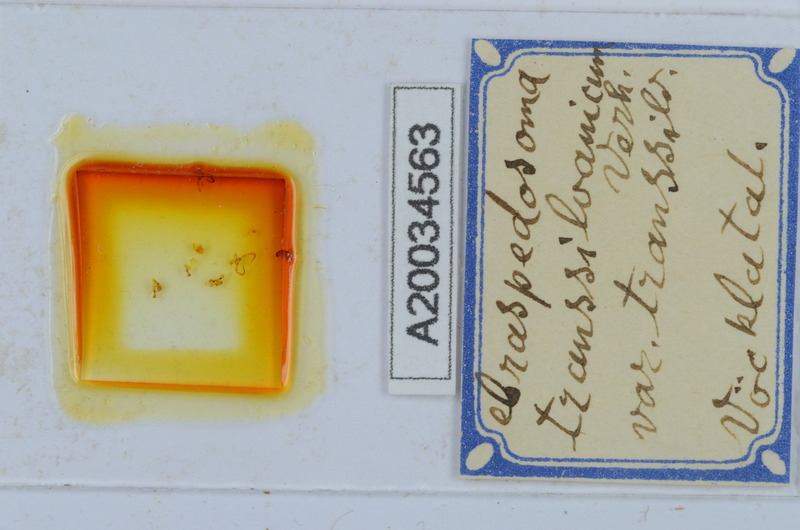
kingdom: Animalia
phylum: Arthropoda
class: Diplopoda
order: Chordeumatida
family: Craspedosomatidae
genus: Craspedosoma
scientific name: Craspedosoma rawlinsii
